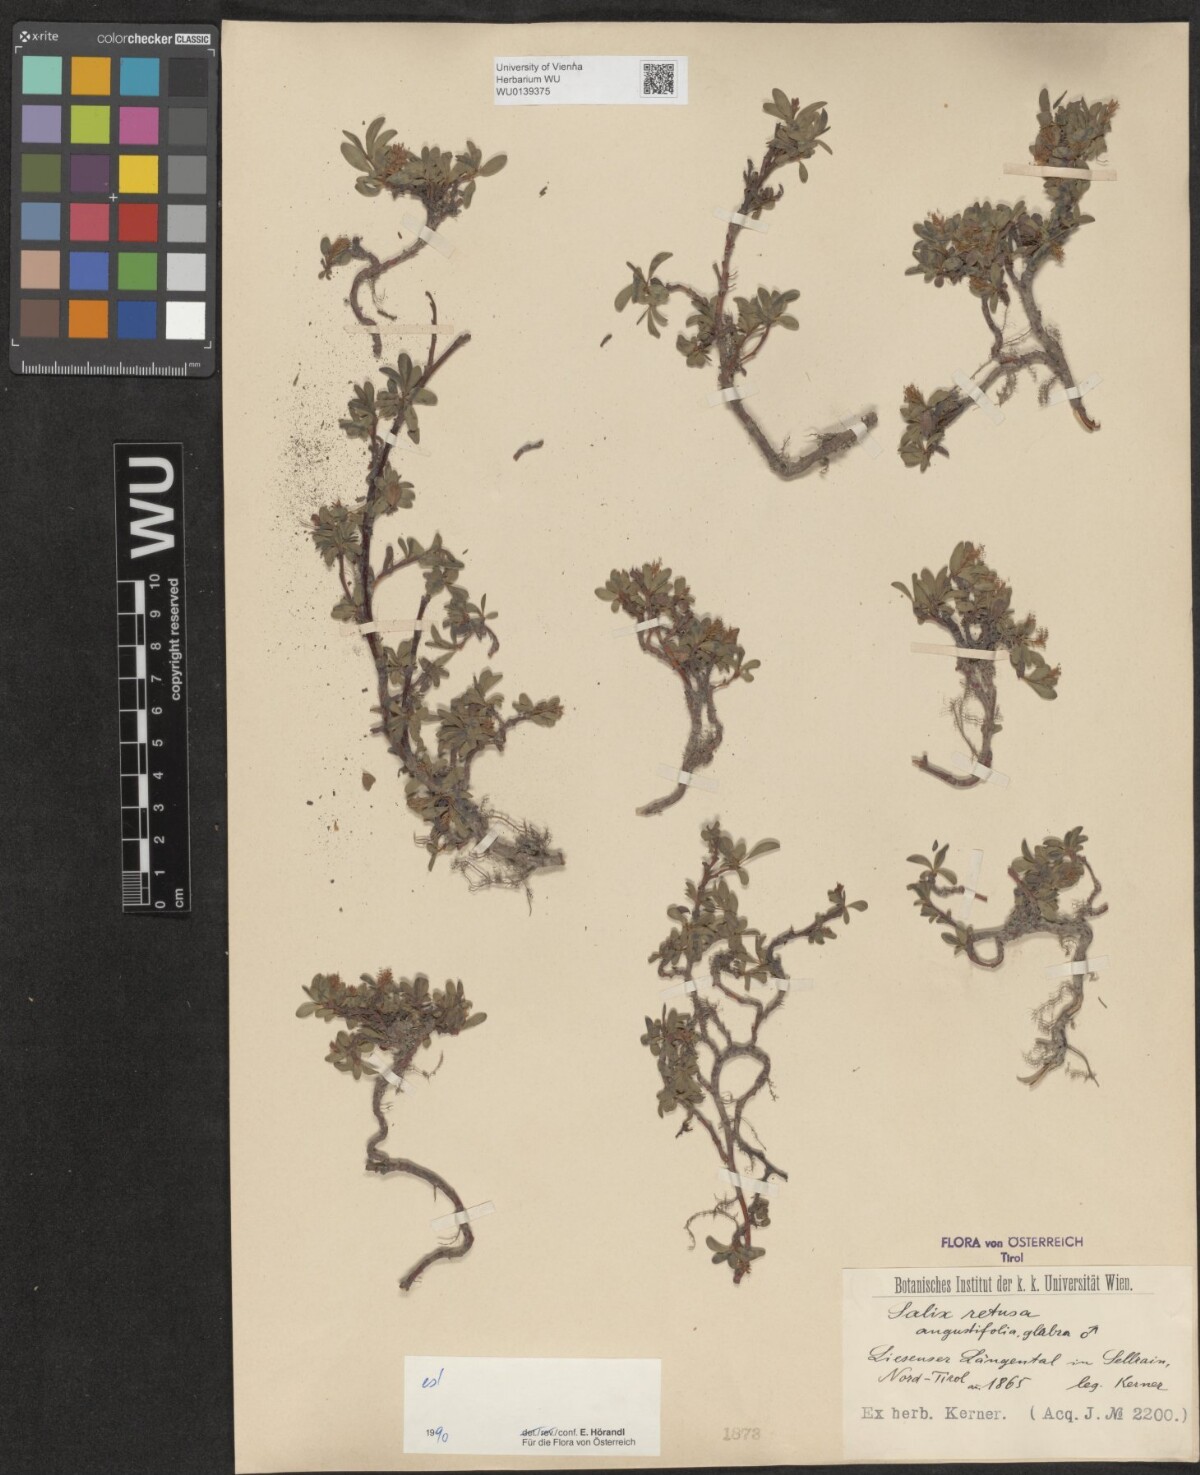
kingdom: Plantae
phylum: Tracheophyta
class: Magnoliopsida
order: Malpighiales
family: Salicaceae
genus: Salix
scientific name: Salix retusa
